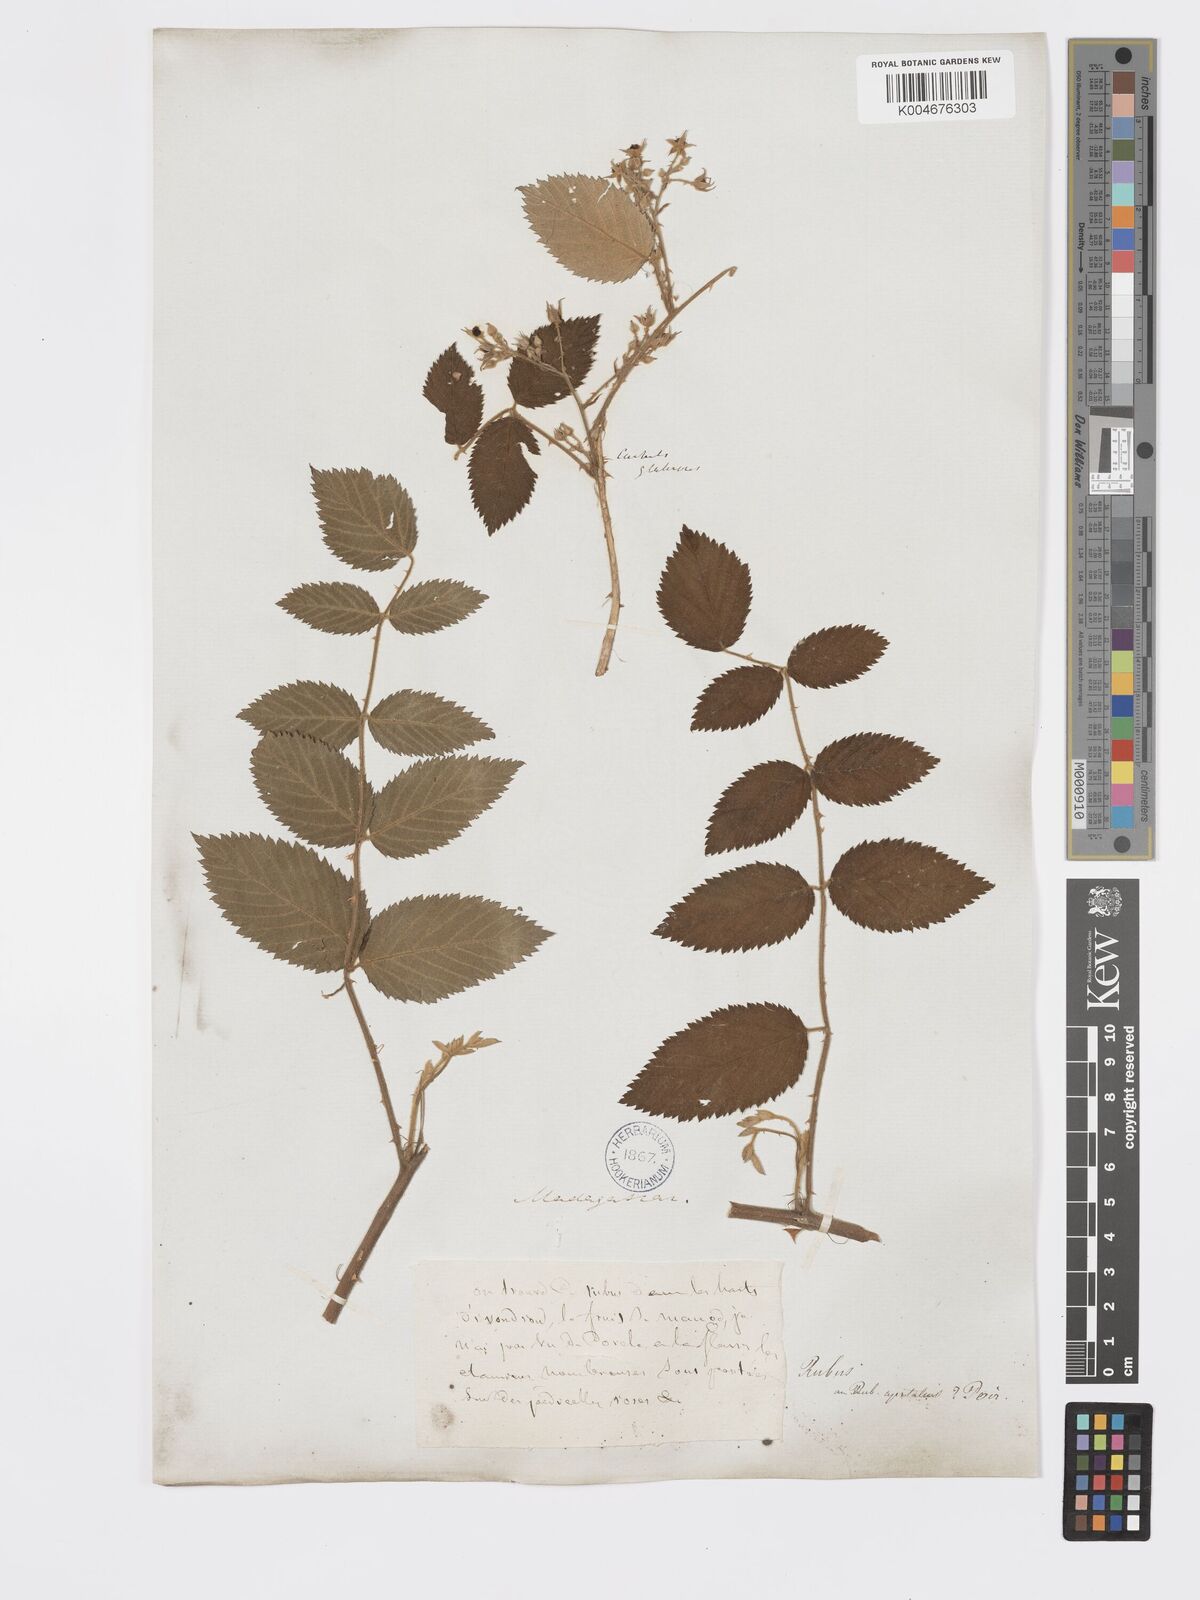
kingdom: Plantae
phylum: Tracheophyta
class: Magnoliopsida
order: Rosales
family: Rosaceae
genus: Rubus
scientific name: Rubus
